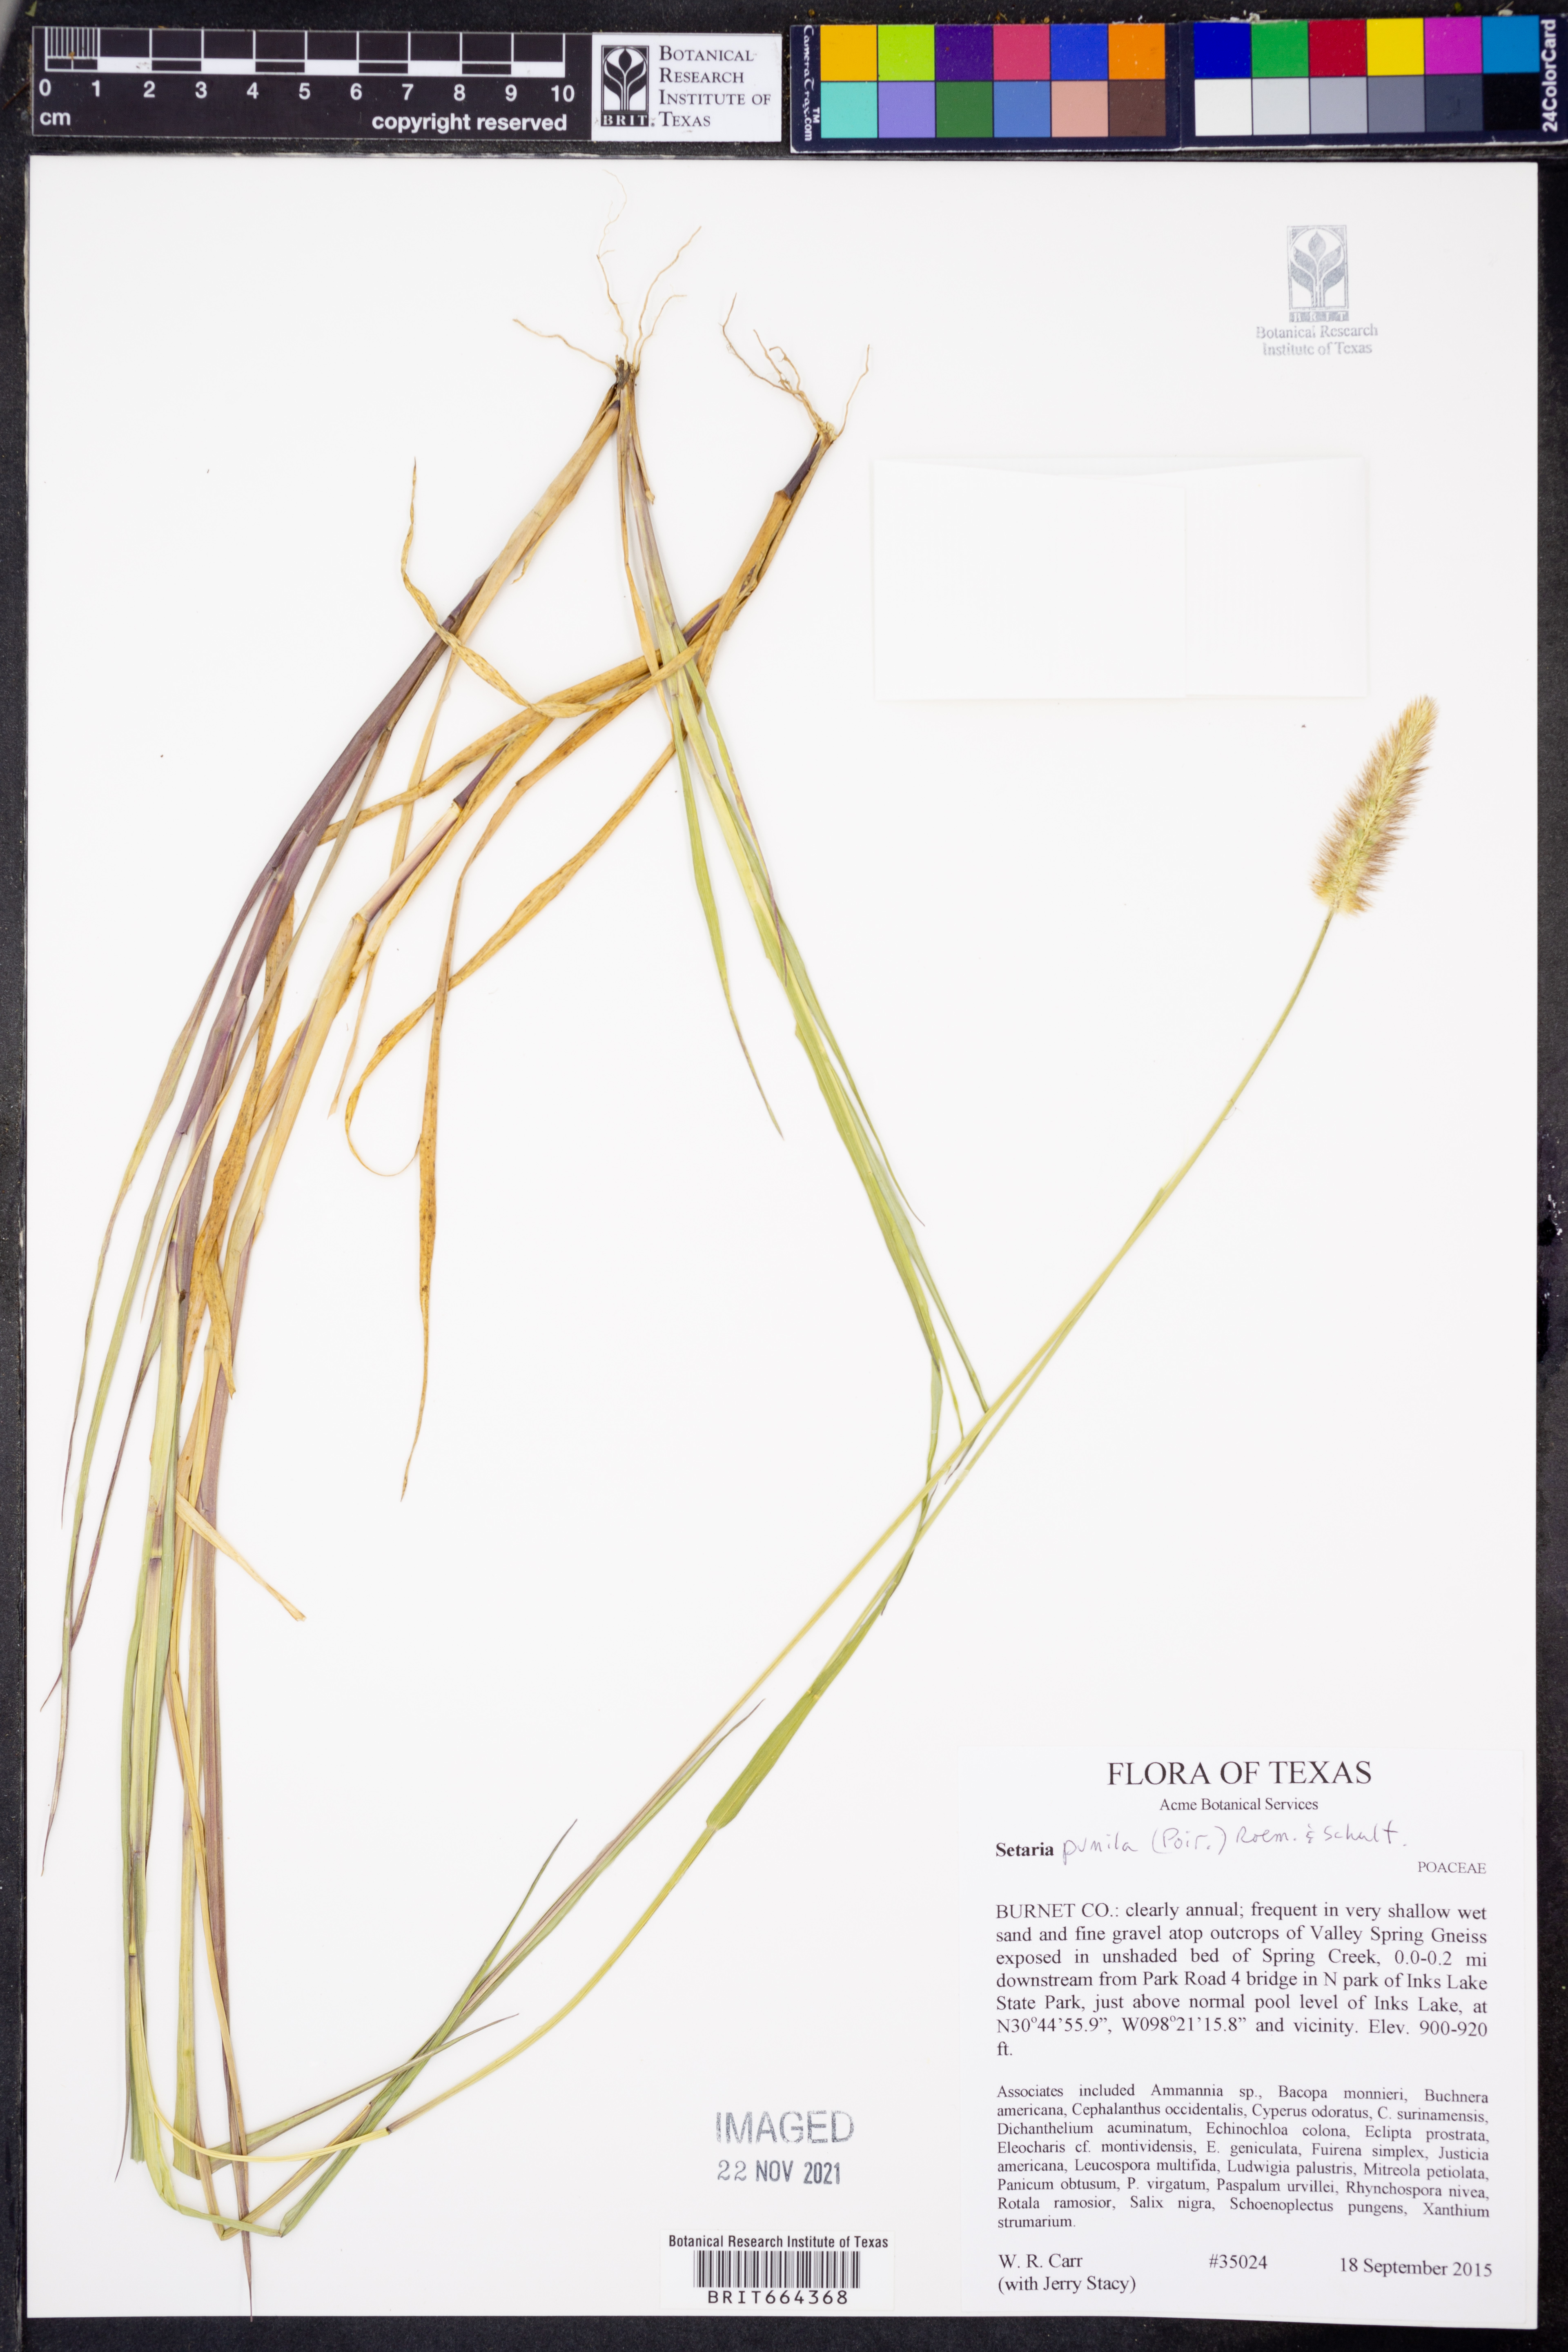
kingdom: Plantae
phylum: Tracheophyta
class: Liliopsida
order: Poales
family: Poaceae
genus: Setaria
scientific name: Setaria pumila
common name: Yellow bristle-grass
